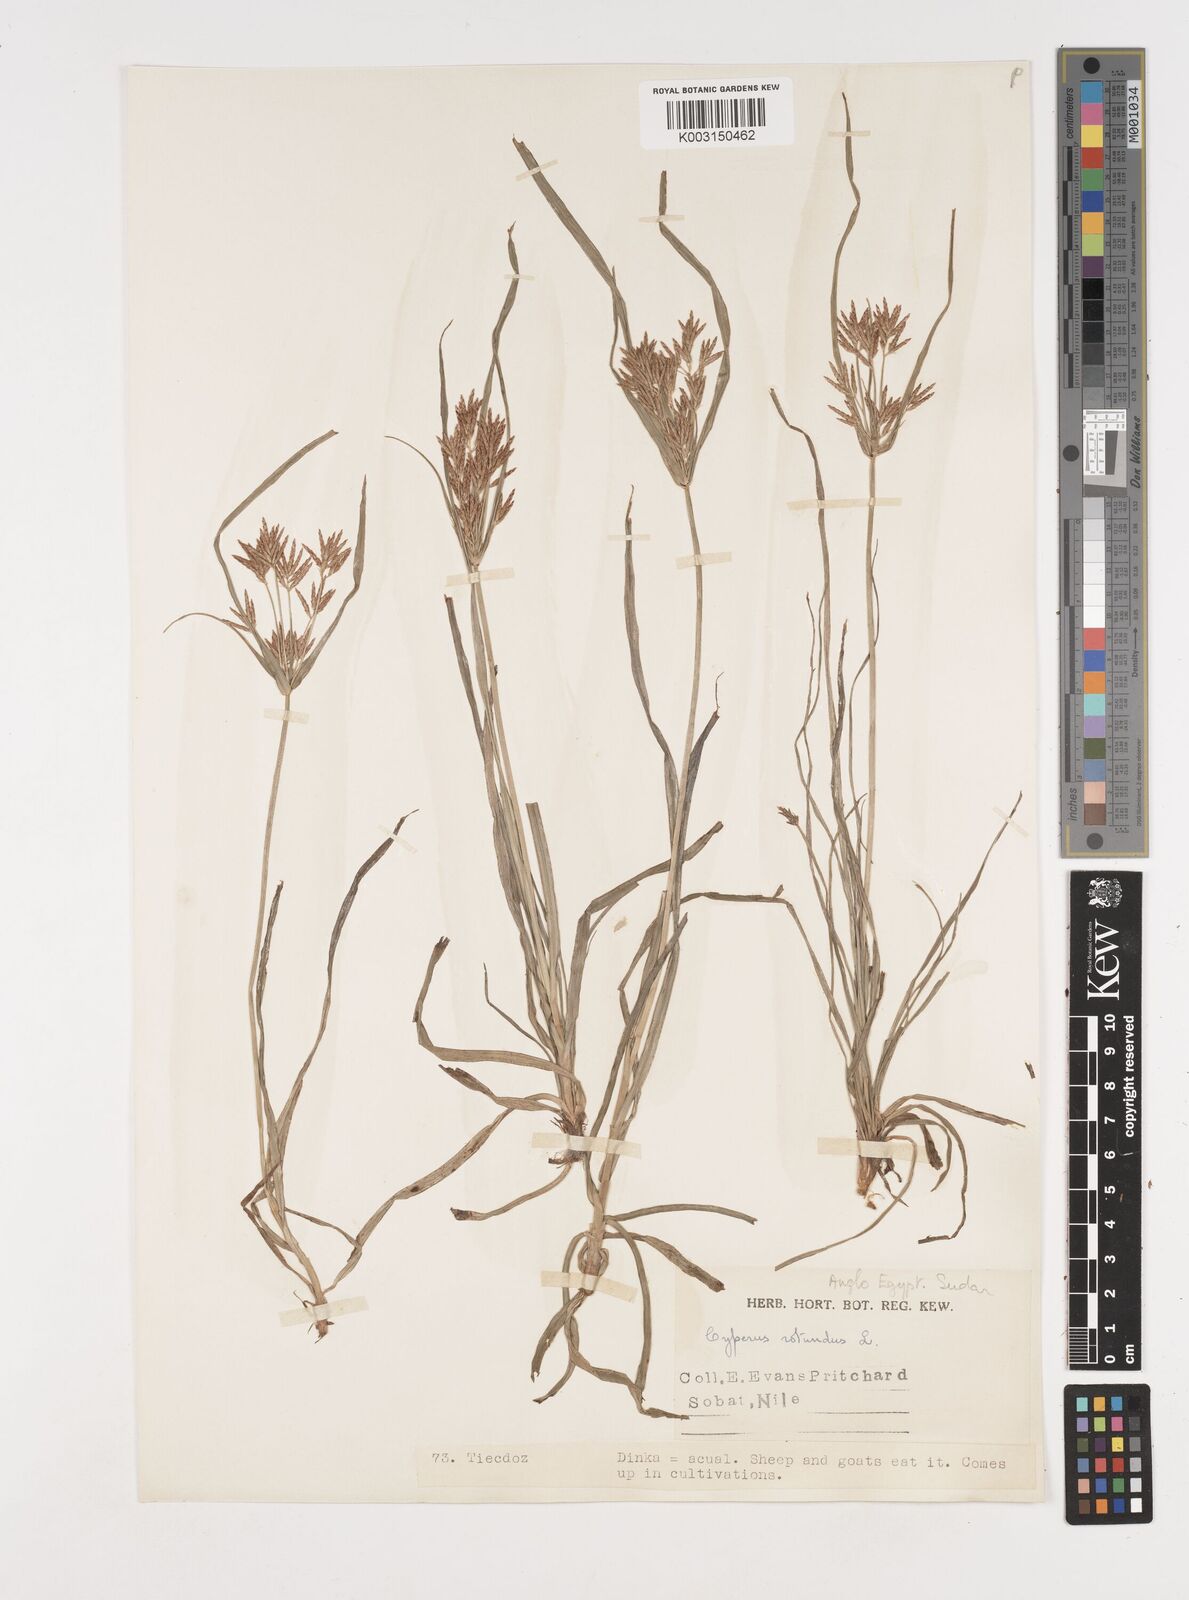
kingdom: Plantae
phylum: Tracheophyta
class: Liliopsida
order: Poales
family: Cyperaceae
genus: Cyperus
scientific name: Cyperus rotundus
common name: Nutgrass
